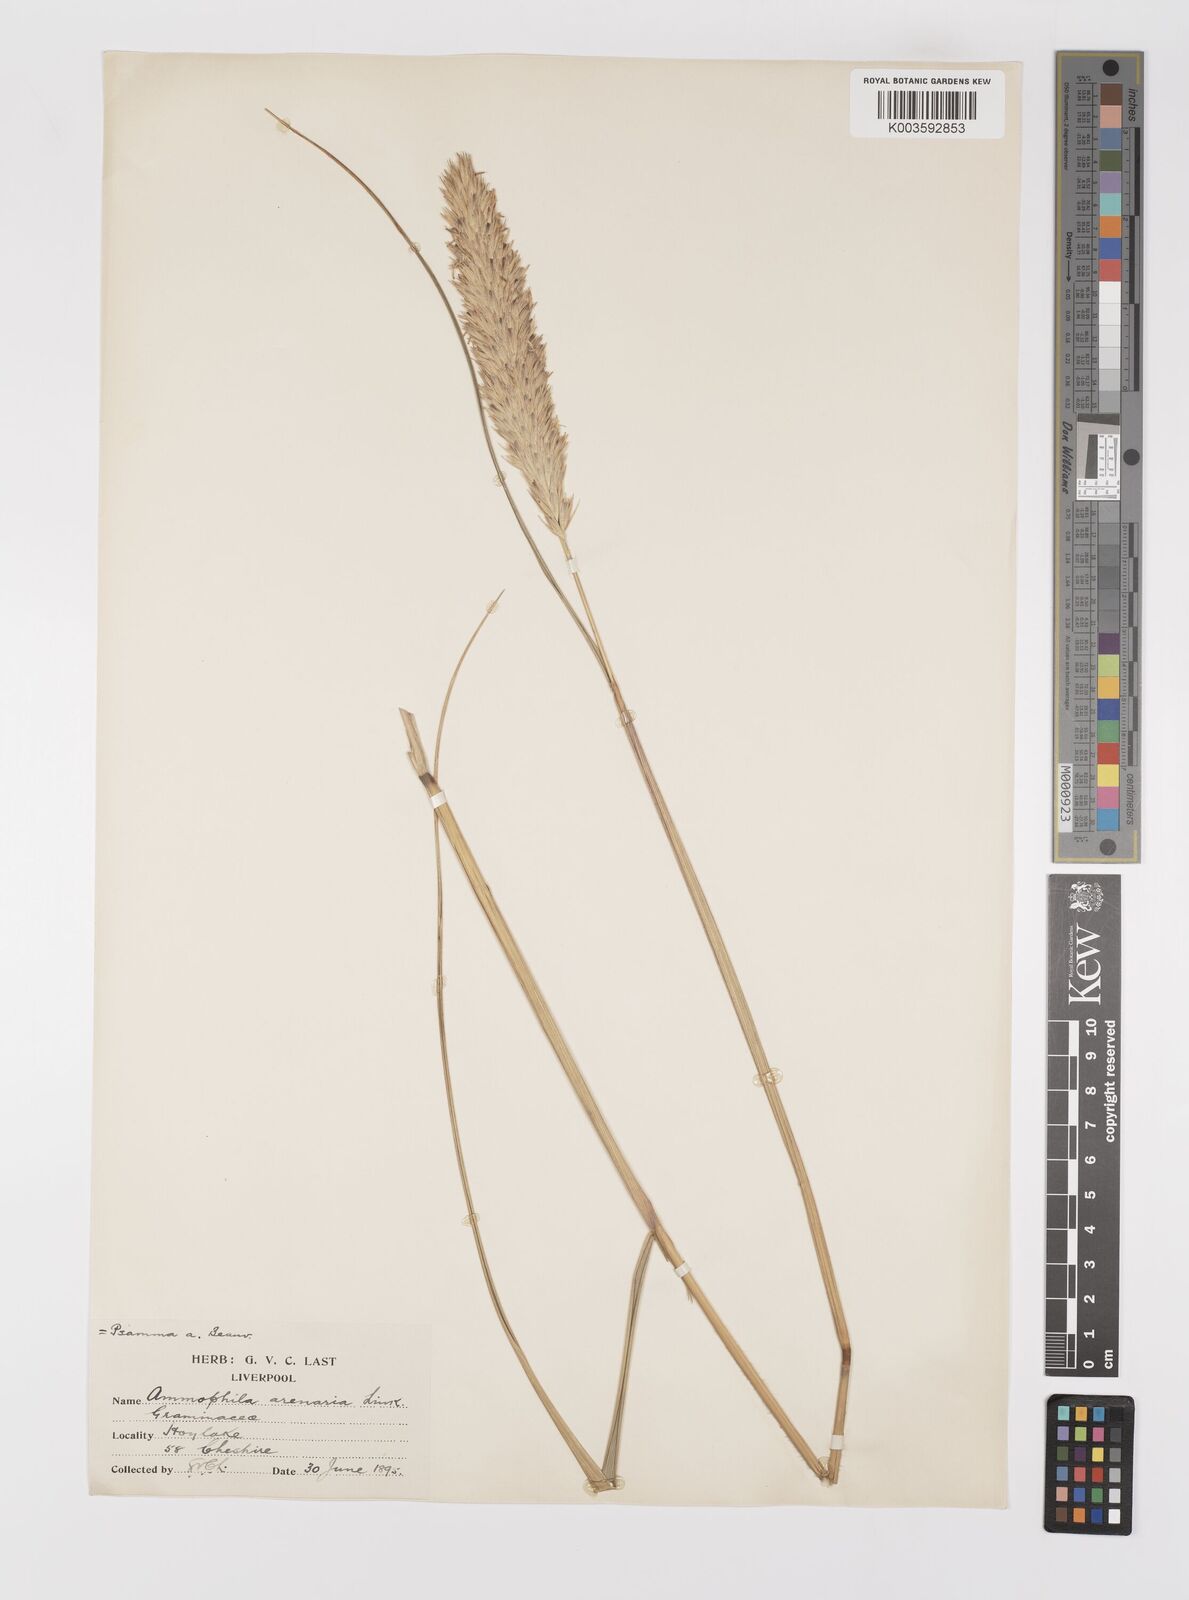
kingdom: Plantae
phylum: Tracheophyta
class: Liliopsida
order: Poales
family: Poaceae
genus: Calamagrostis
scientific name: Calamagrostis arenaria
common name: European beachgrass
